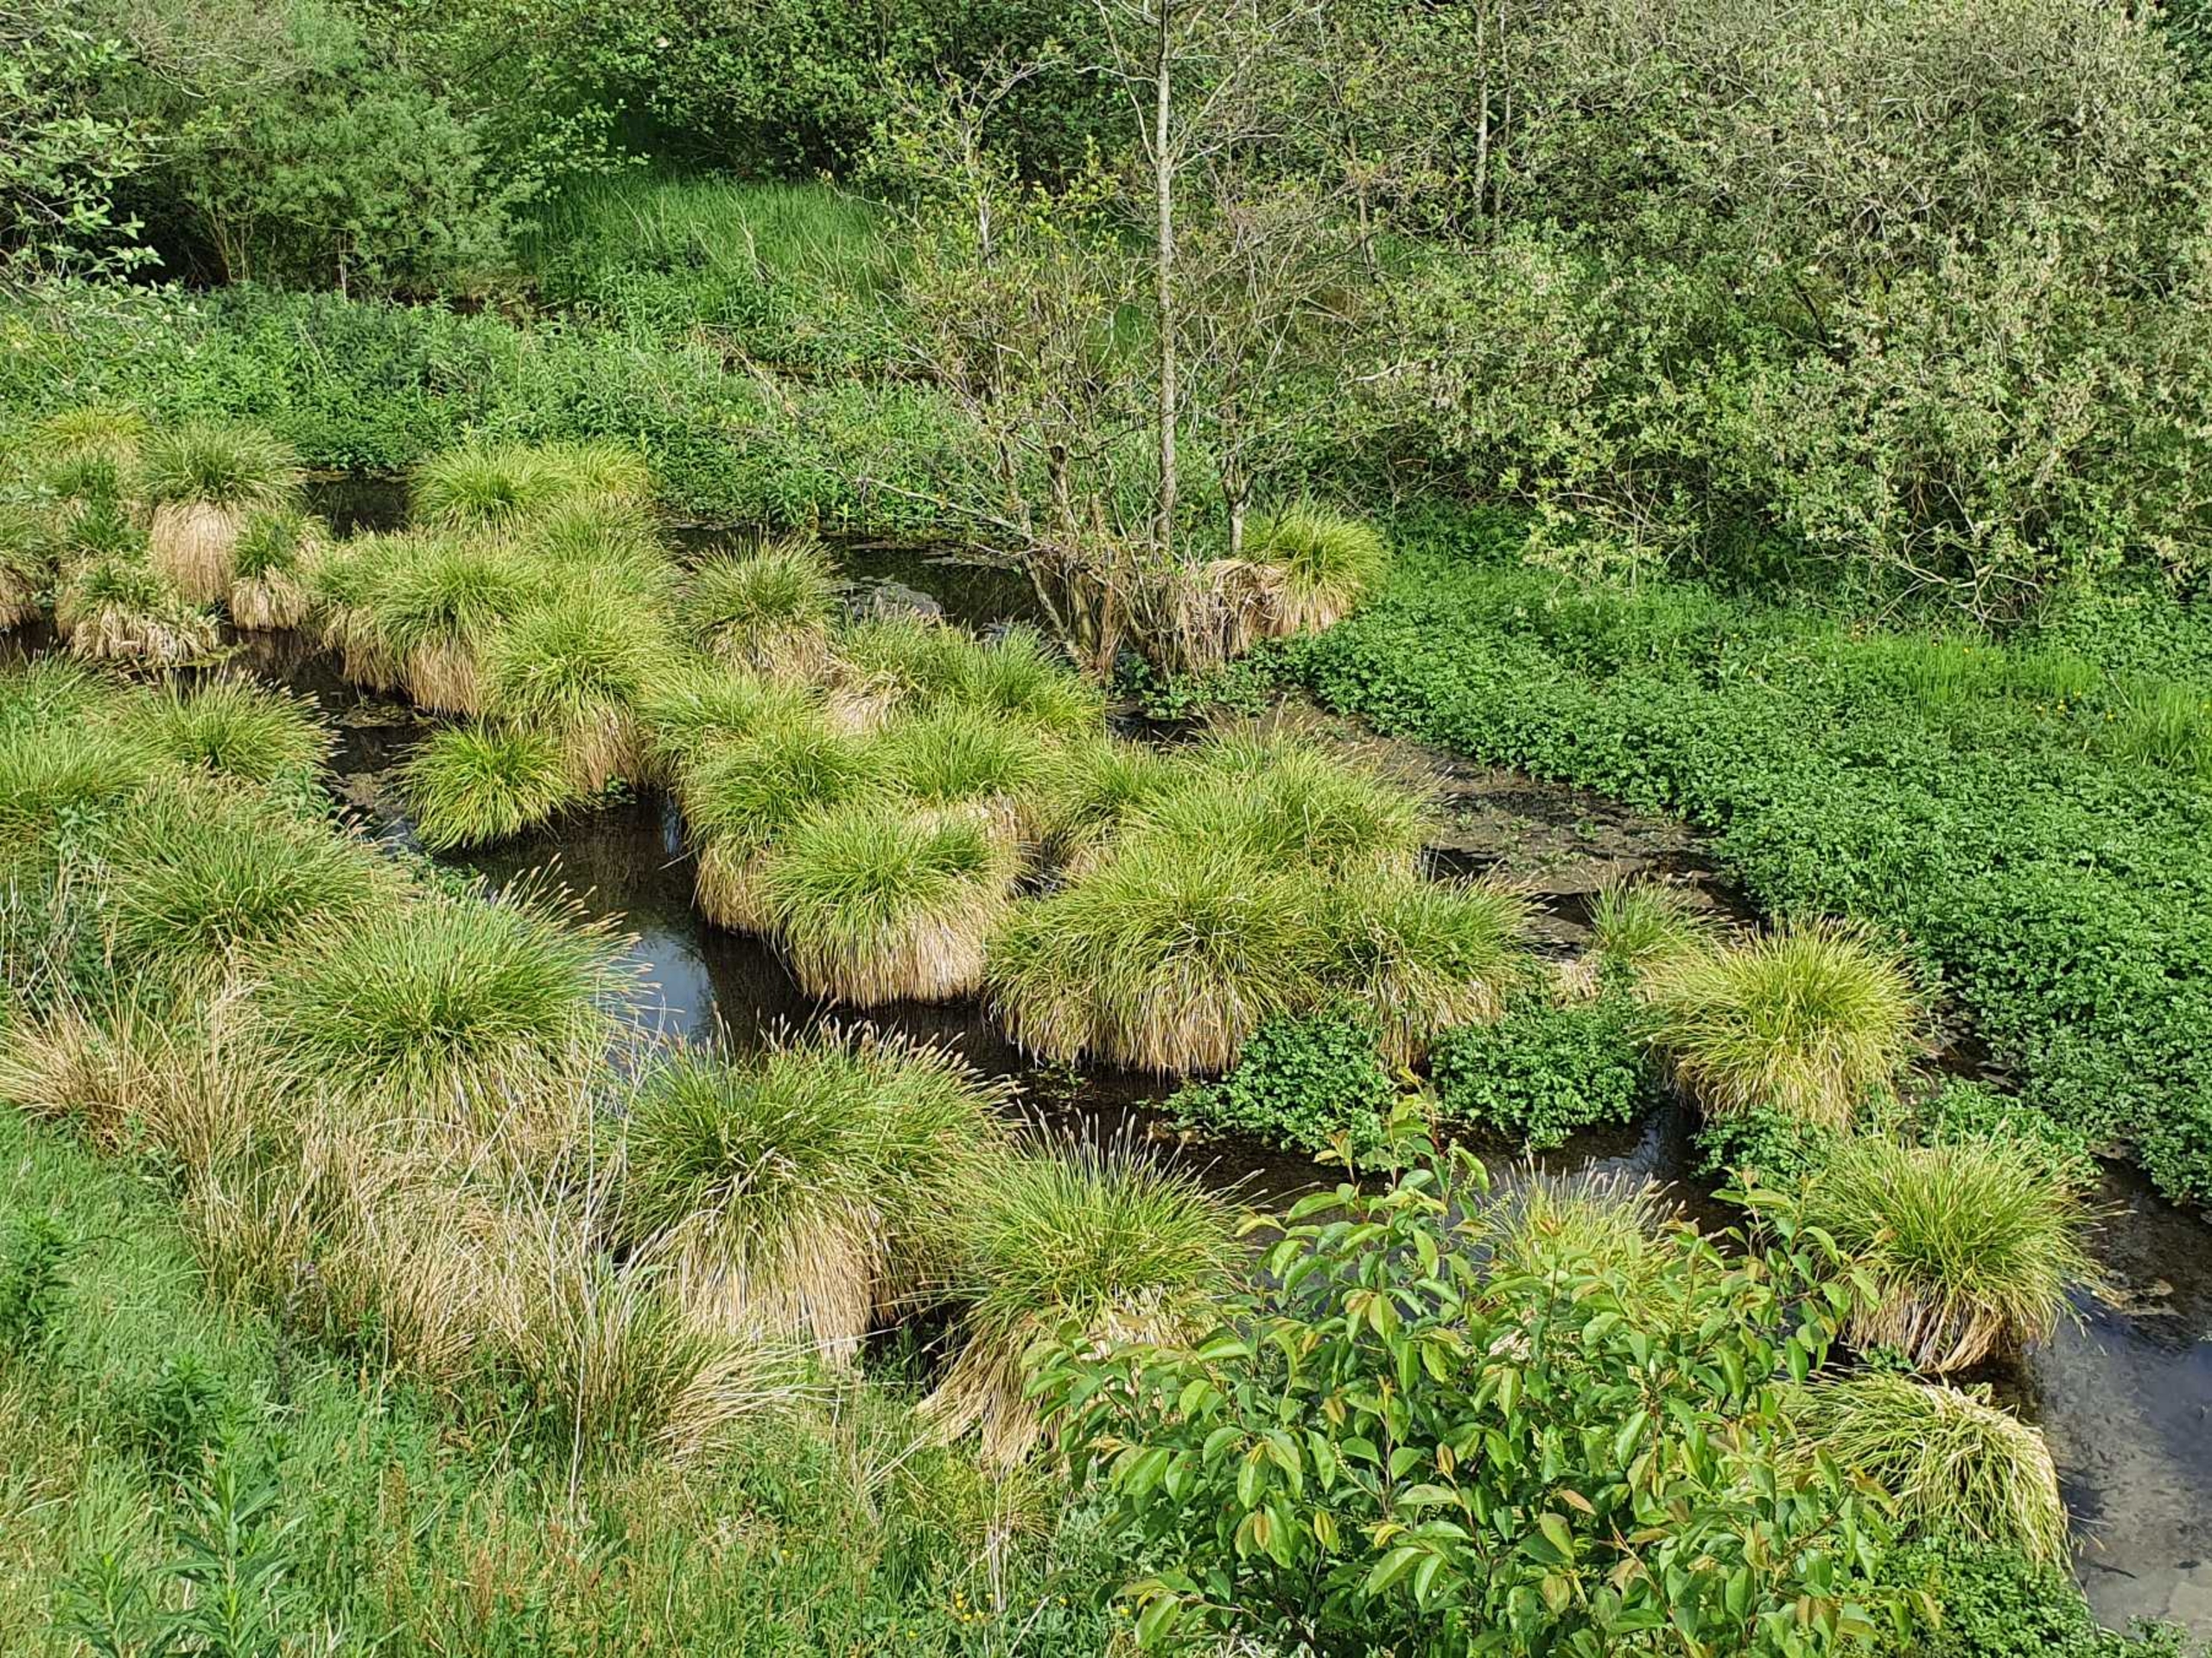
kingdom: Plantae
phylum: Tracheophyta
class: Liliopsida
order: Poales
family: Cyperaceae
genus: Carex
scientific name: Carex paniculata
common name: Top-star
